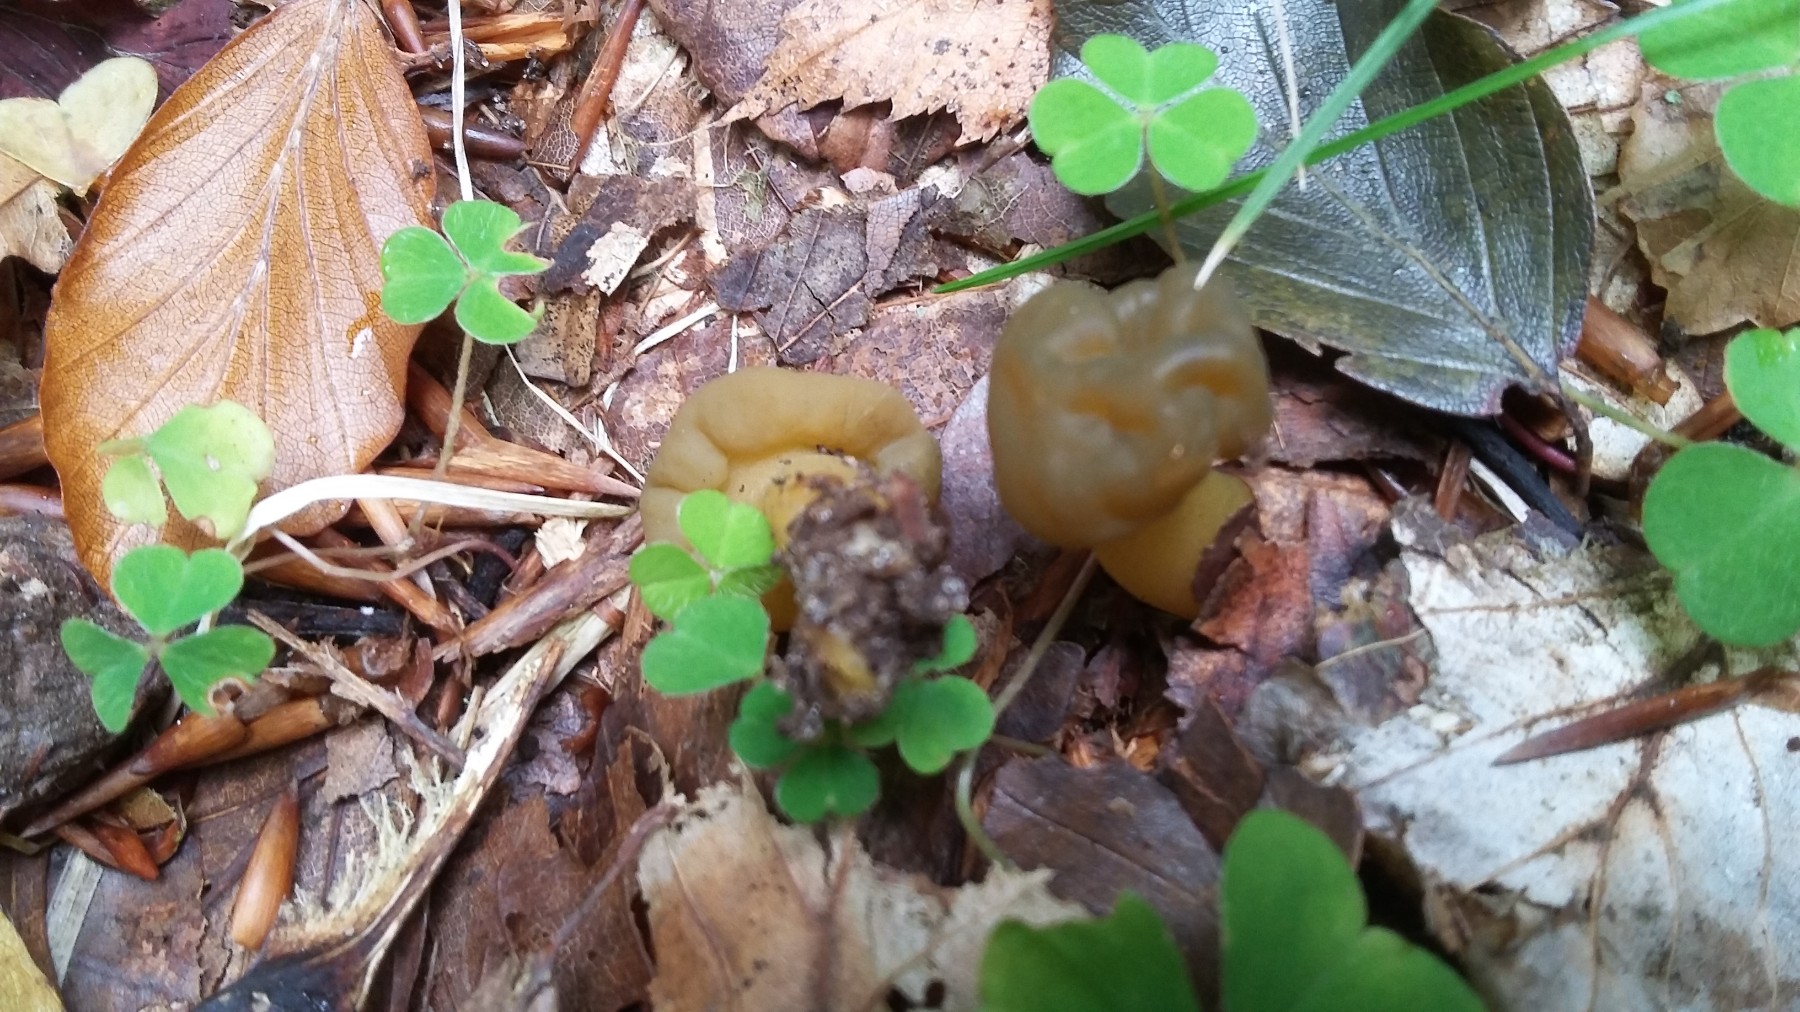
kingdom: Fungi
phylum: Ascomycota
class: Leotiomycetes
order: Leotiales
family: Leotiaceae
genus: Leotia
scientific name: Leotia lubrica
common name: ravsvamp
